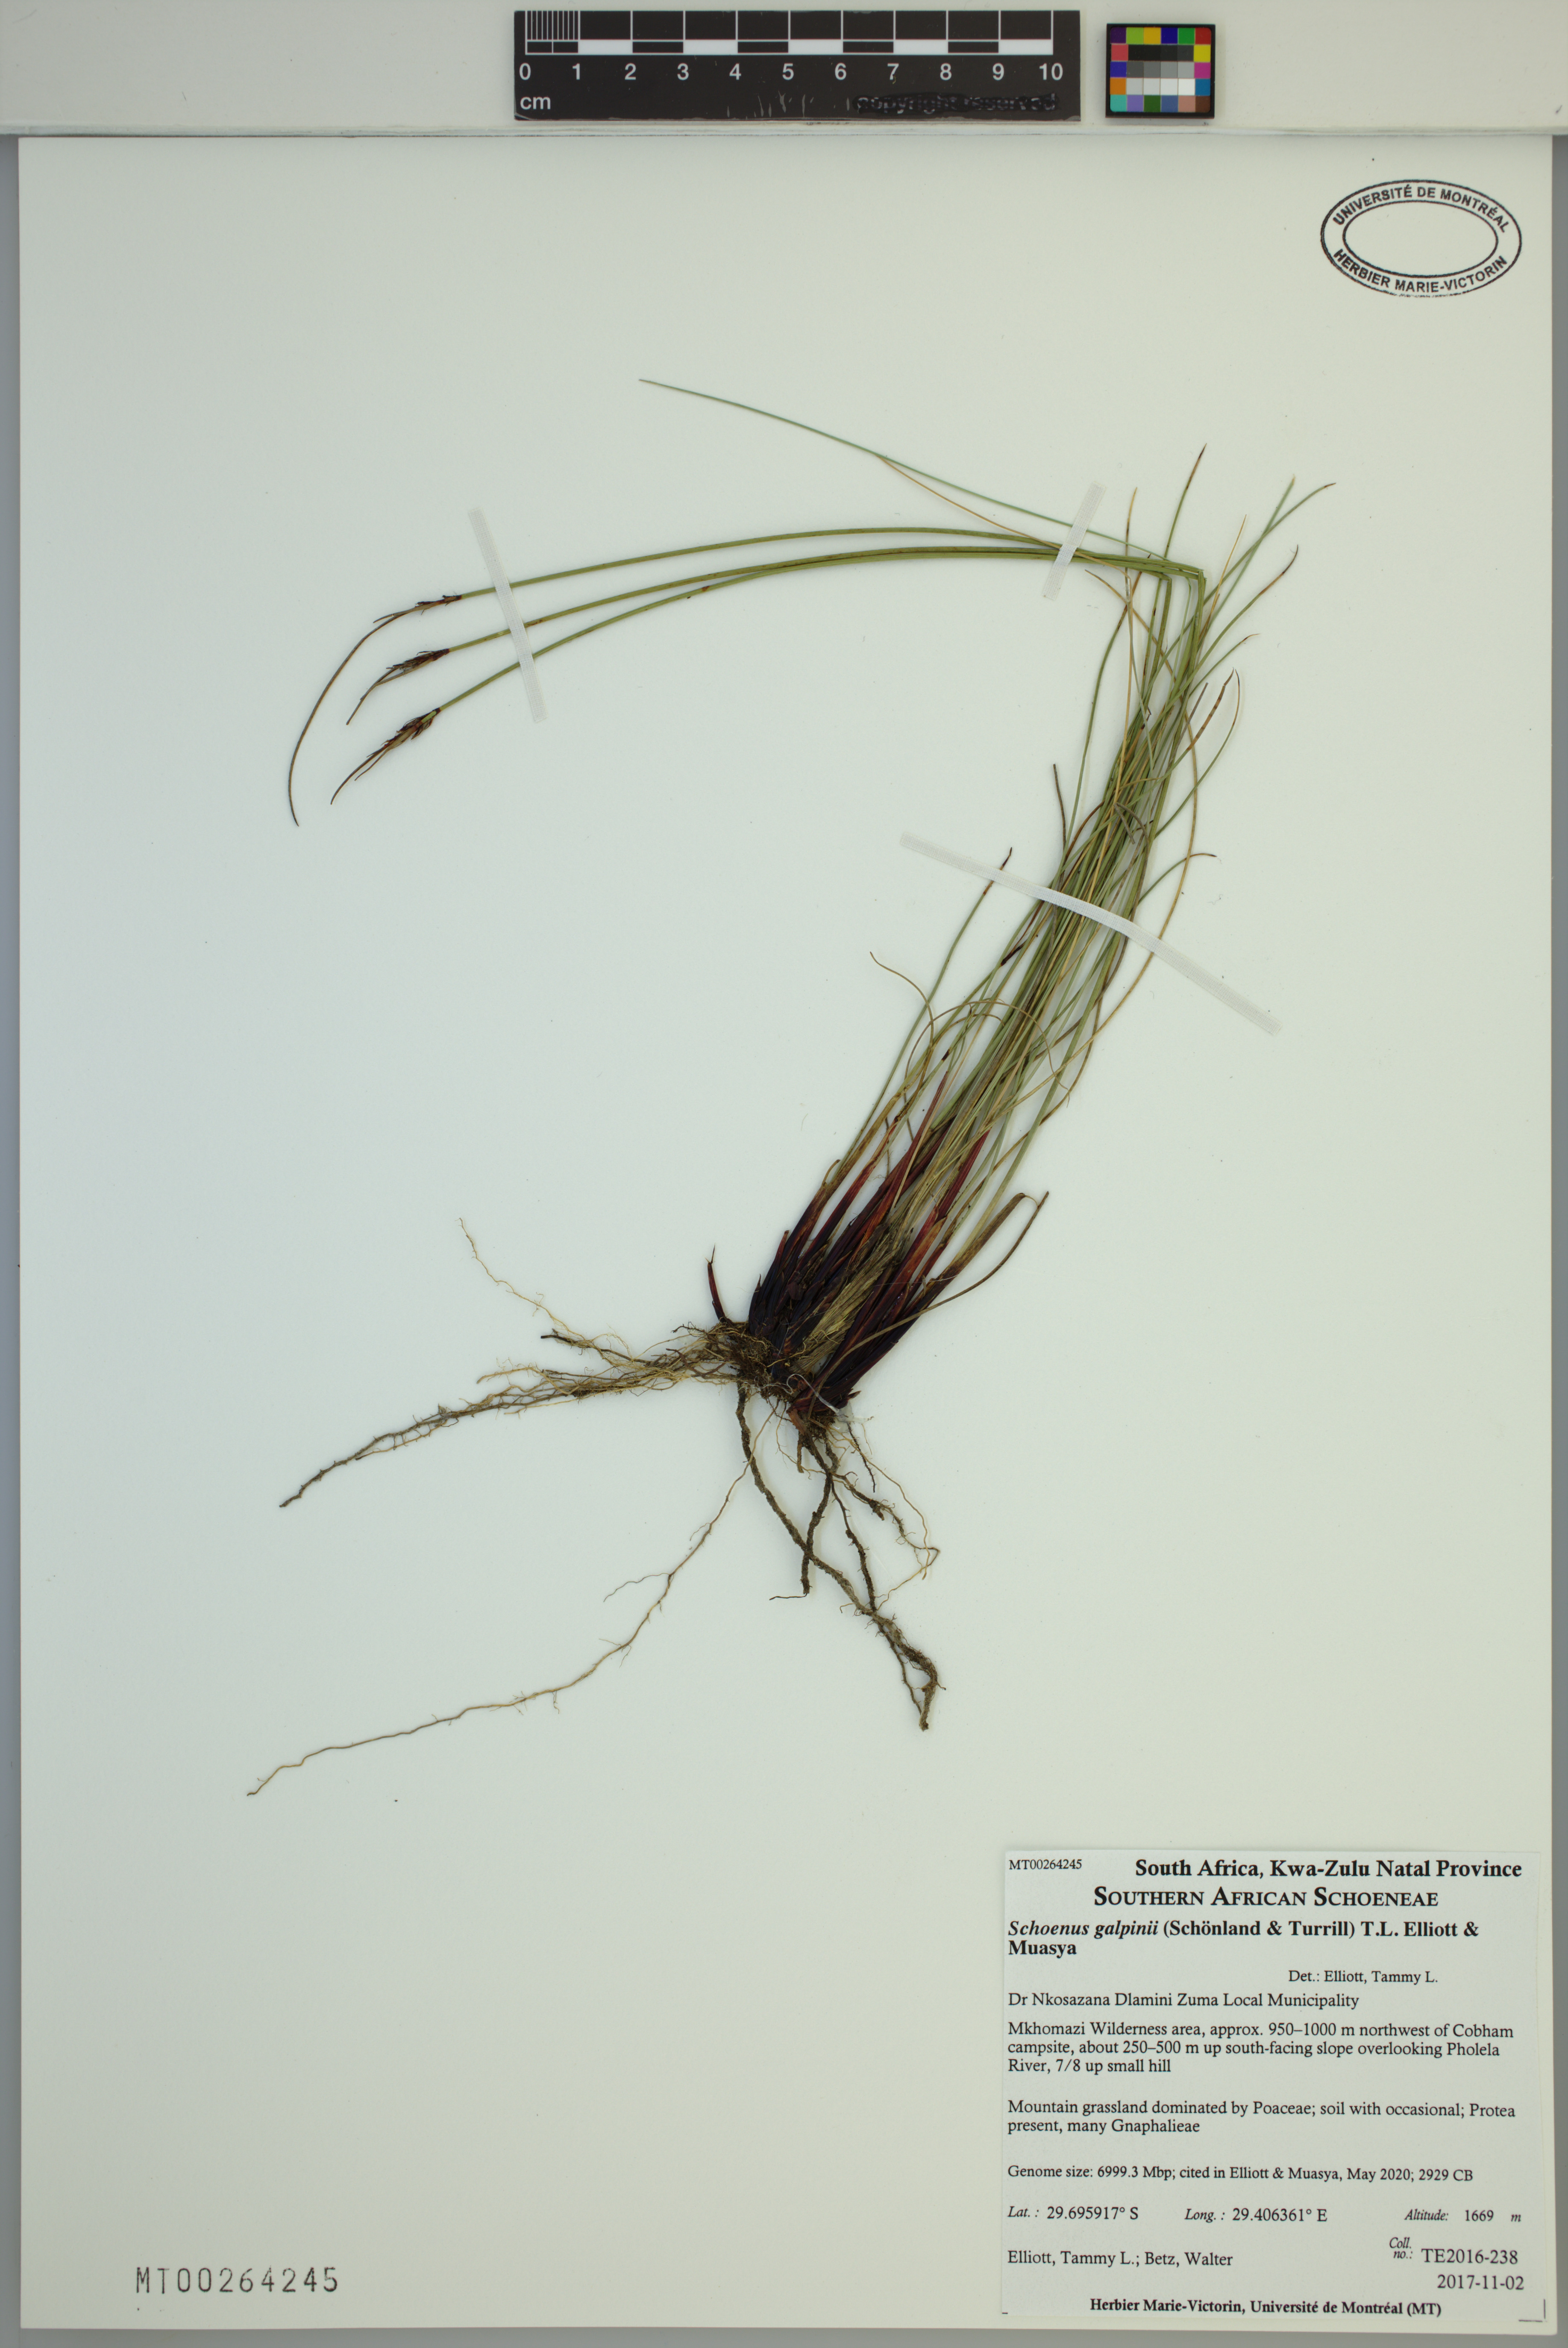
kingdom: Plantae
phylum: Tracheophyta
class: Liliopsida
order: Poales
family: Cyperaceae
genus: Schoenus
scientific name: Schoenus galpinii
